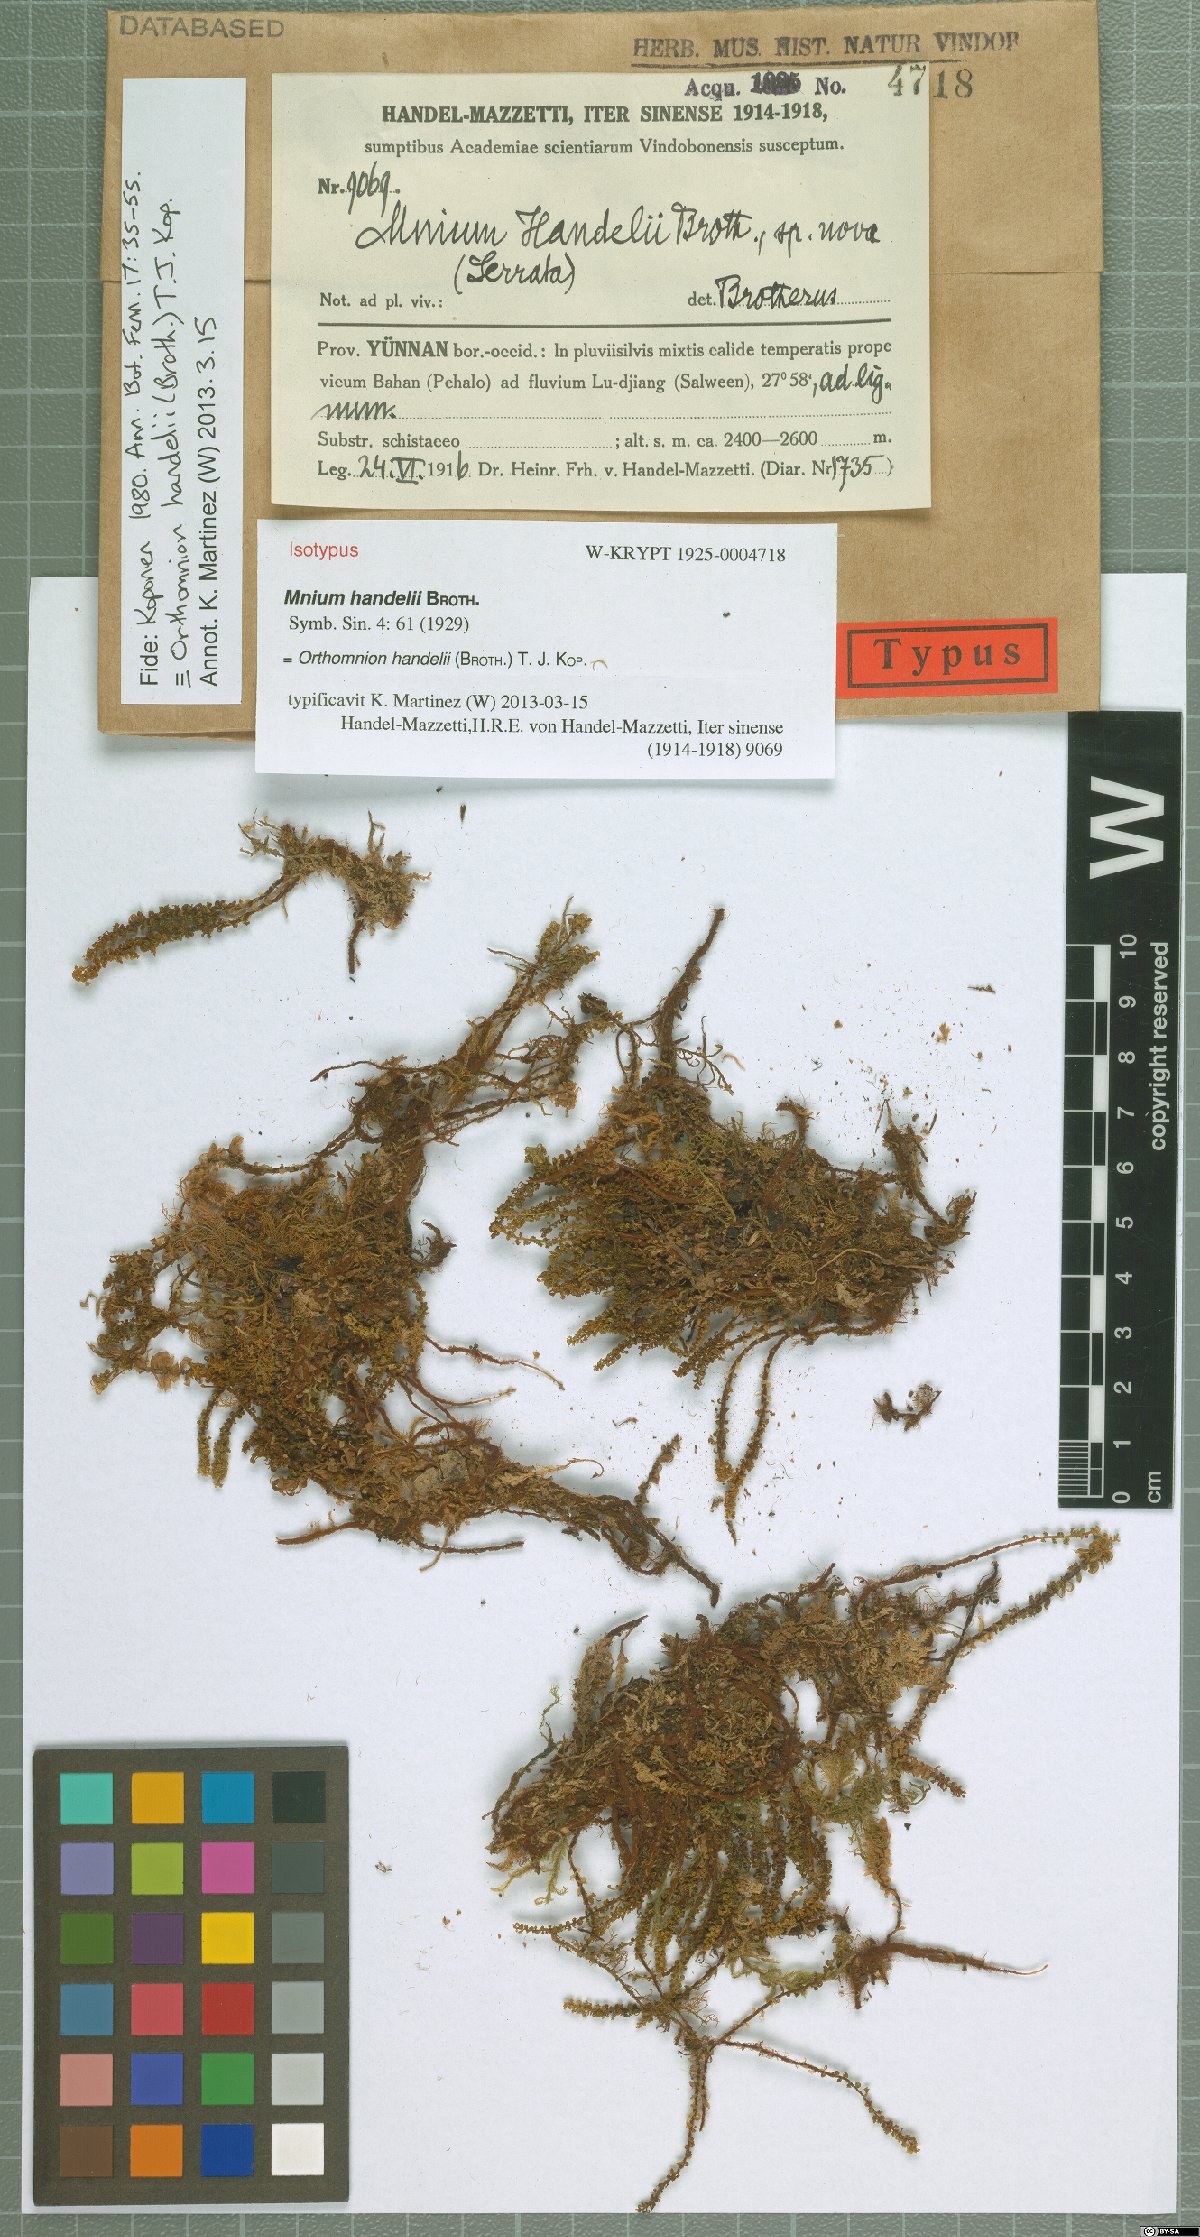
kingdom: Plantae
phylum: Bryophyta
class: Bryopsida
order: Bryales
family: Mniaceae
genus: Orthomnion
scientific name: Orthomnion handelii
